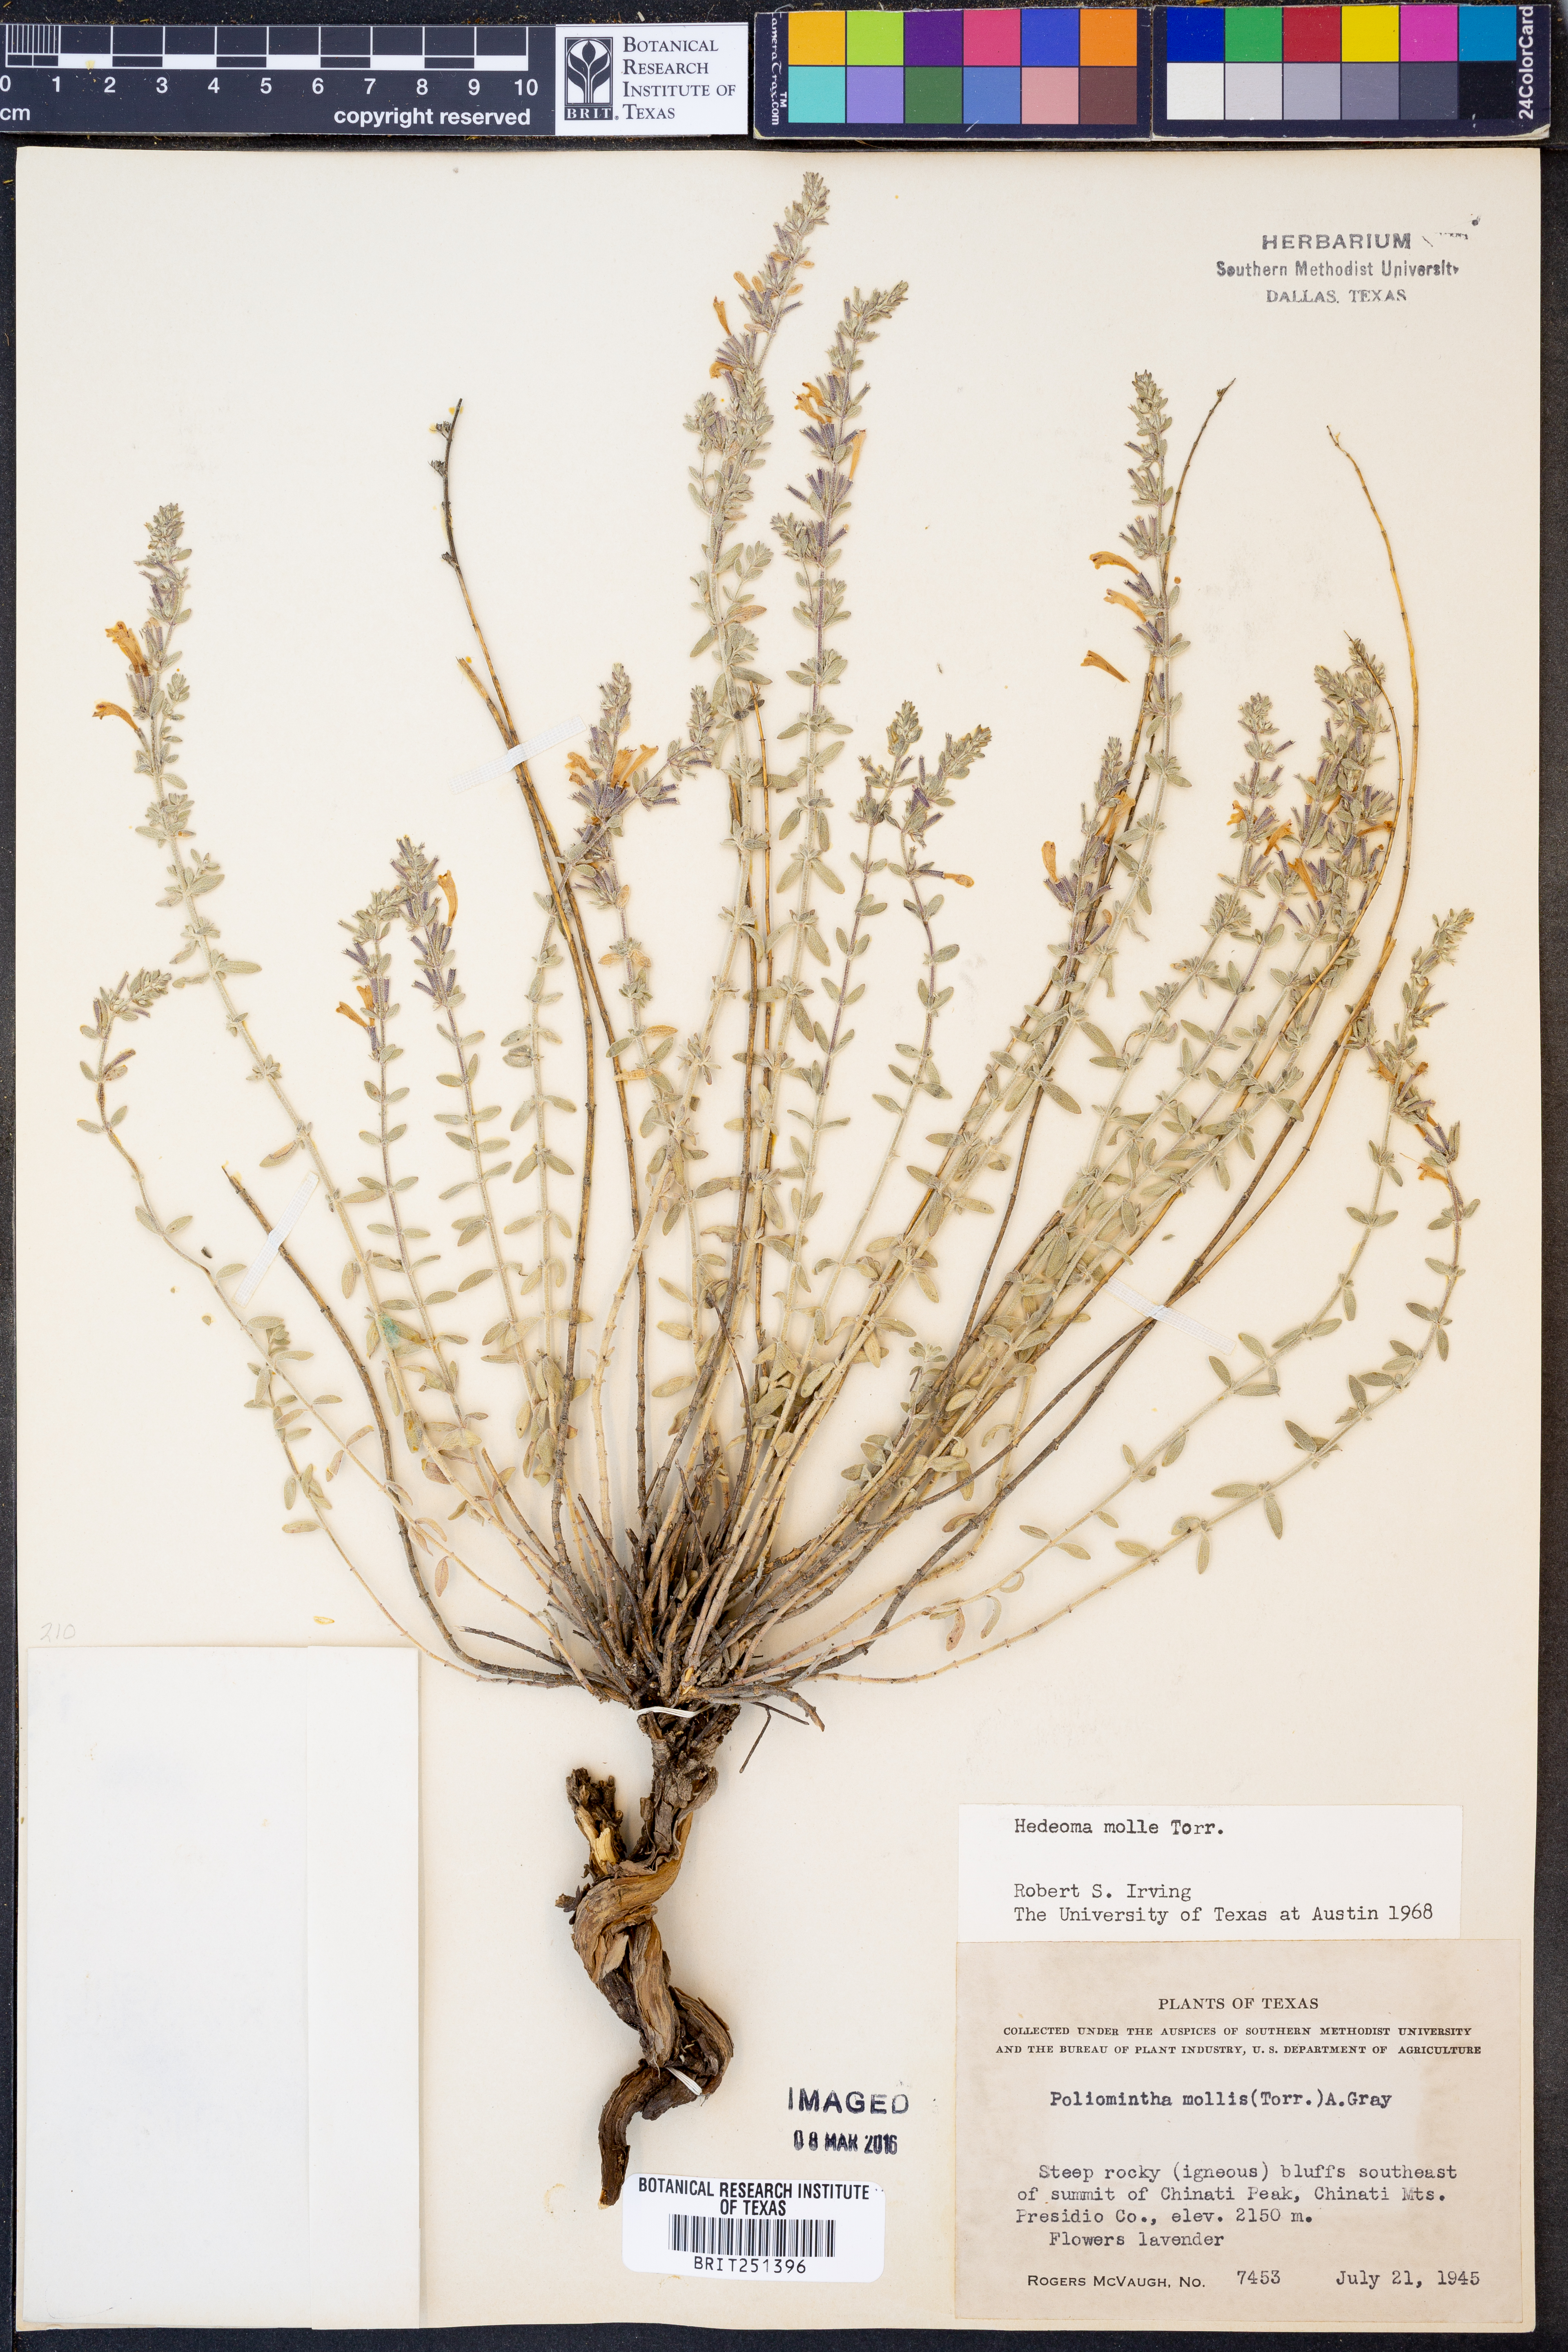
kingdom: Plantae
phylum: Tracheophyta
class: Magnoliopsida
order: Lamiales
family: Lamiaceae
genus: Hedeoma
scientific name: Hedeoma mollis
